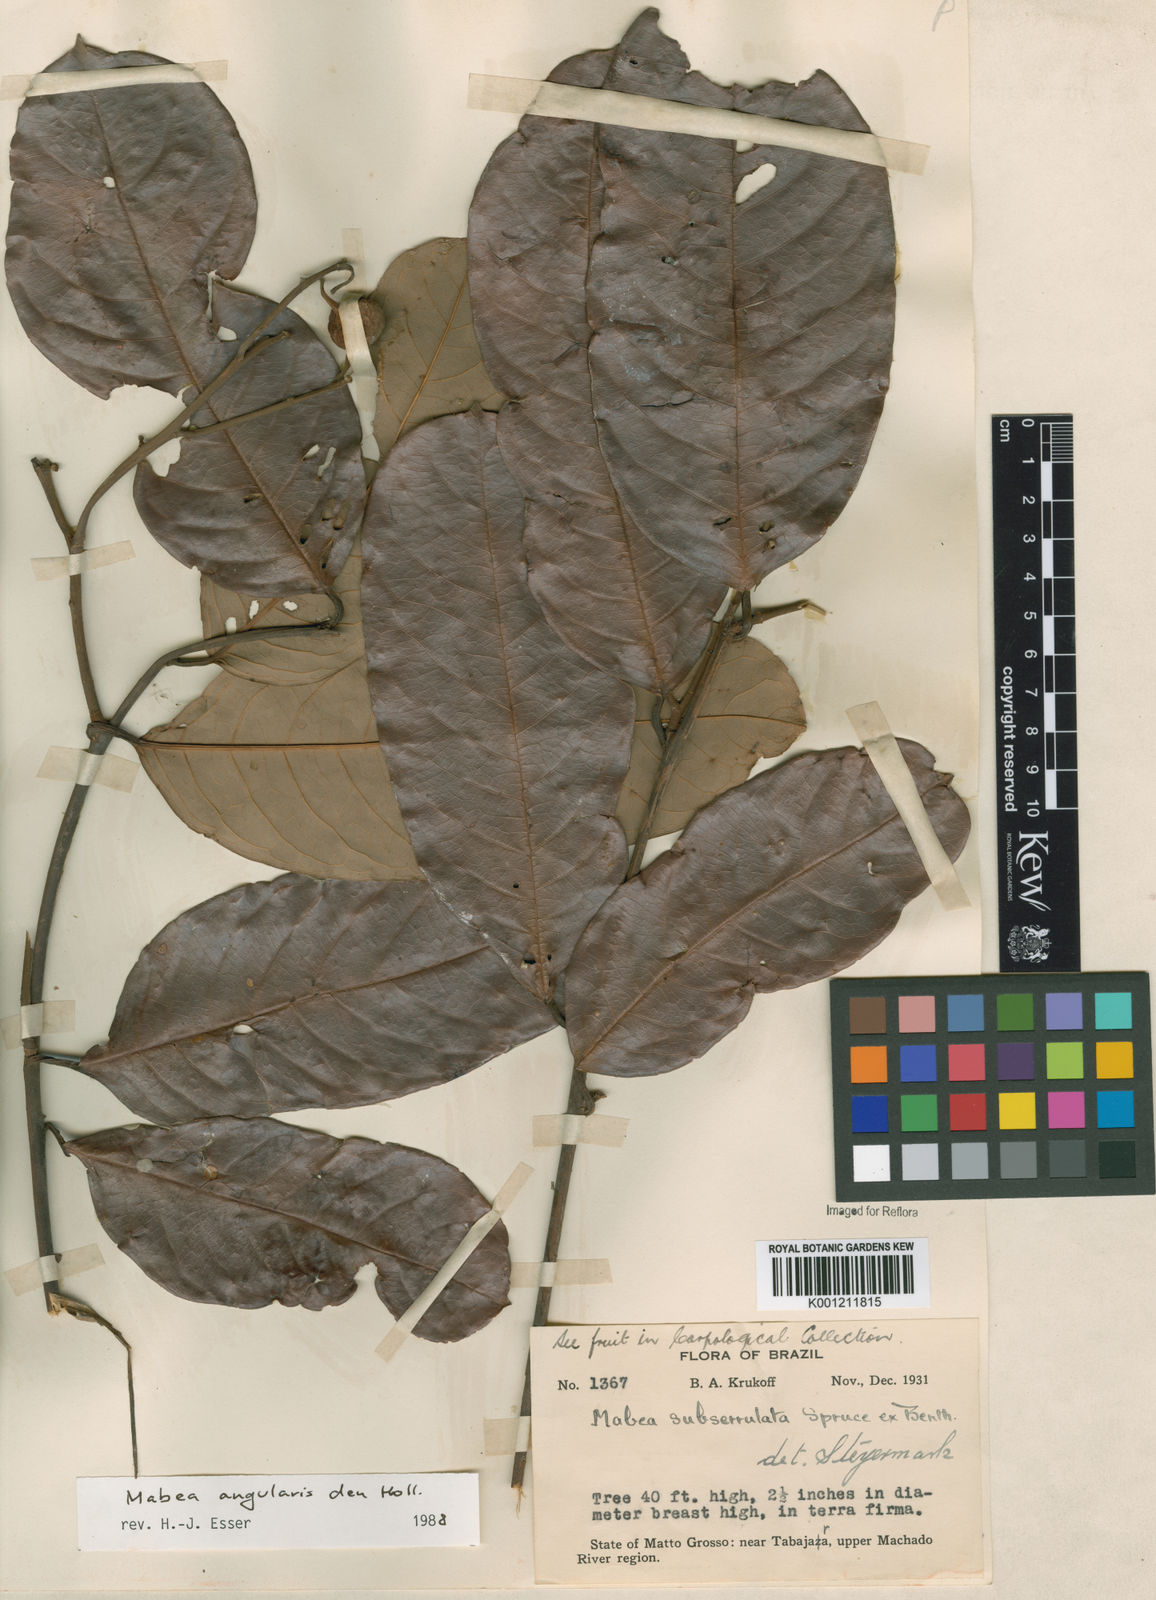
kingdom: Plantae
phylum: Tracheophyta
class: Magnoliopsida
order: Malpighiales
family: Euphorbiaceae
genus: Mabea
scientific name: Mabea subserrulata
